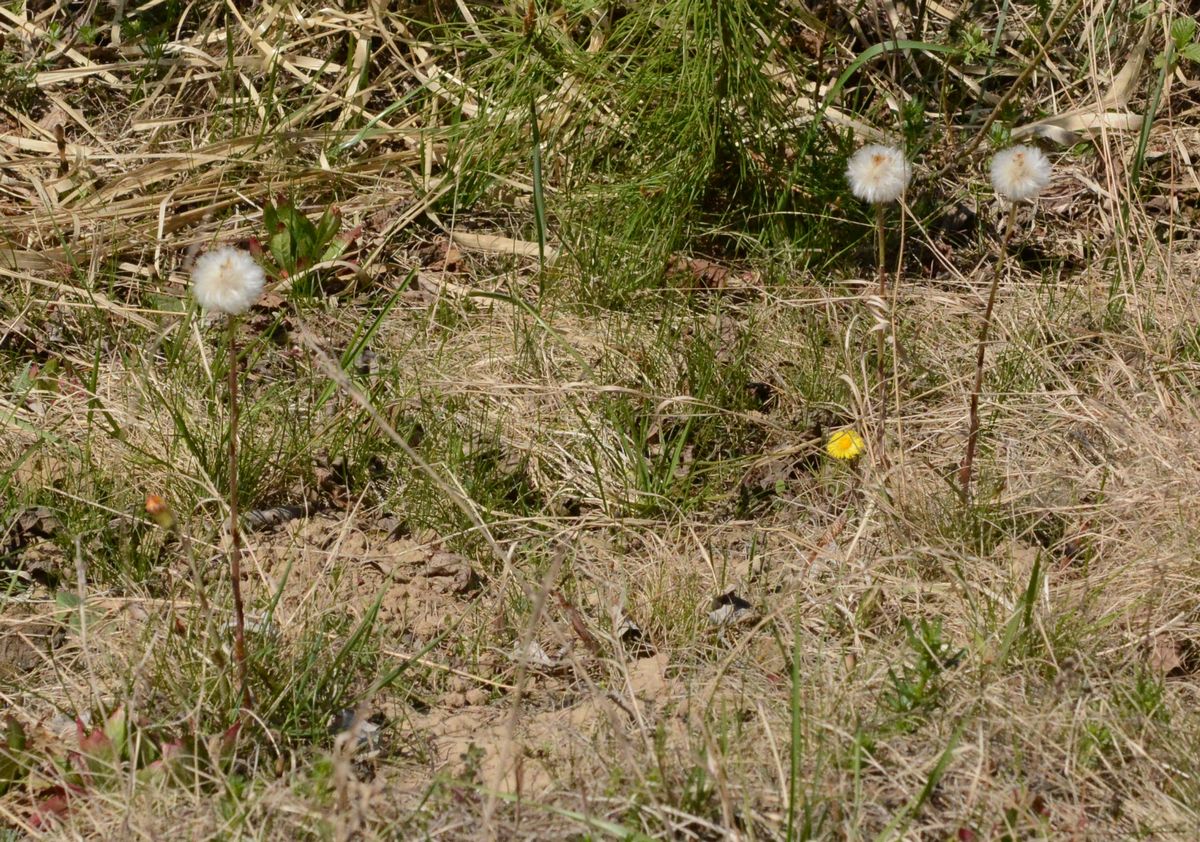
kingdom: Plantae
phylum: Tracheophyta
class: Magnoliopsida
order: Asterales
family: Asteraceae
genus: Tussilago
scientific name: Tussilago farfara
